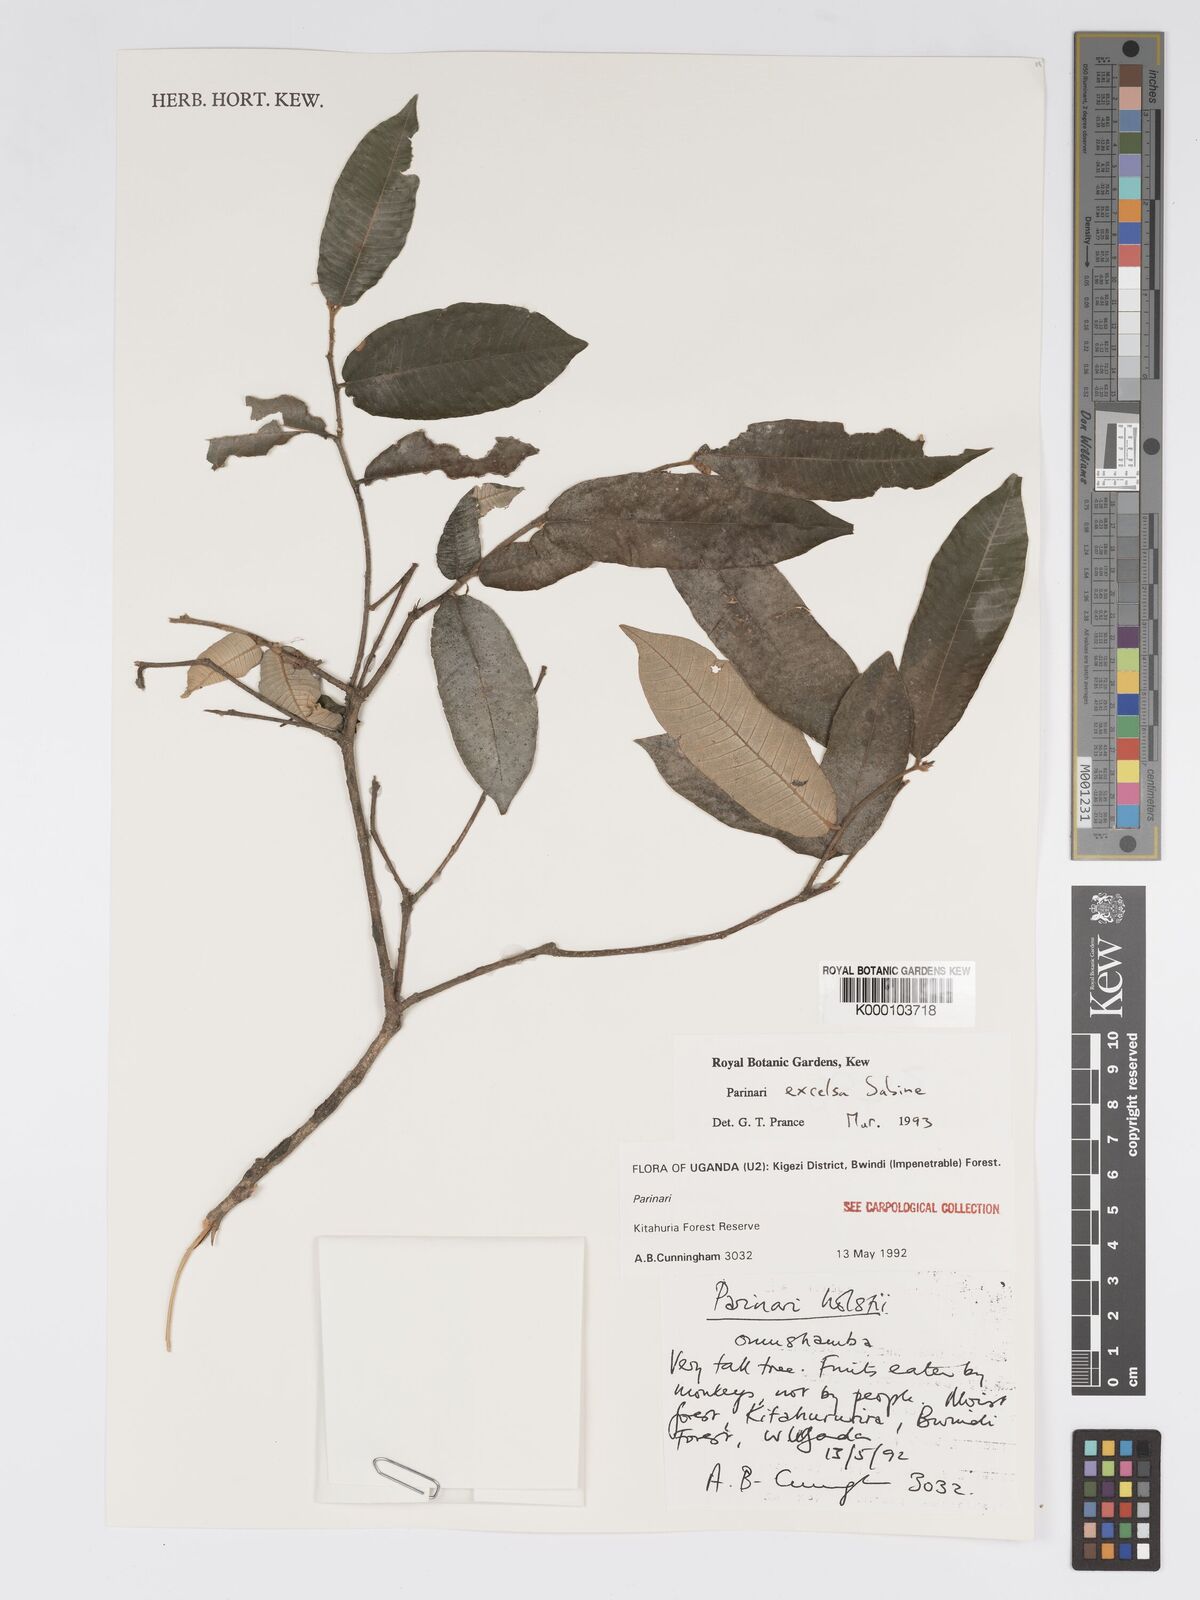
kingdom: Plantae
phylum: Tracheophyta
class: Magnoliopsida
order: Malpighiales
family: Chrysobalanaceae
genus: Parinari
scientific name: Parinari excelsa
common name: Guinea-plum
